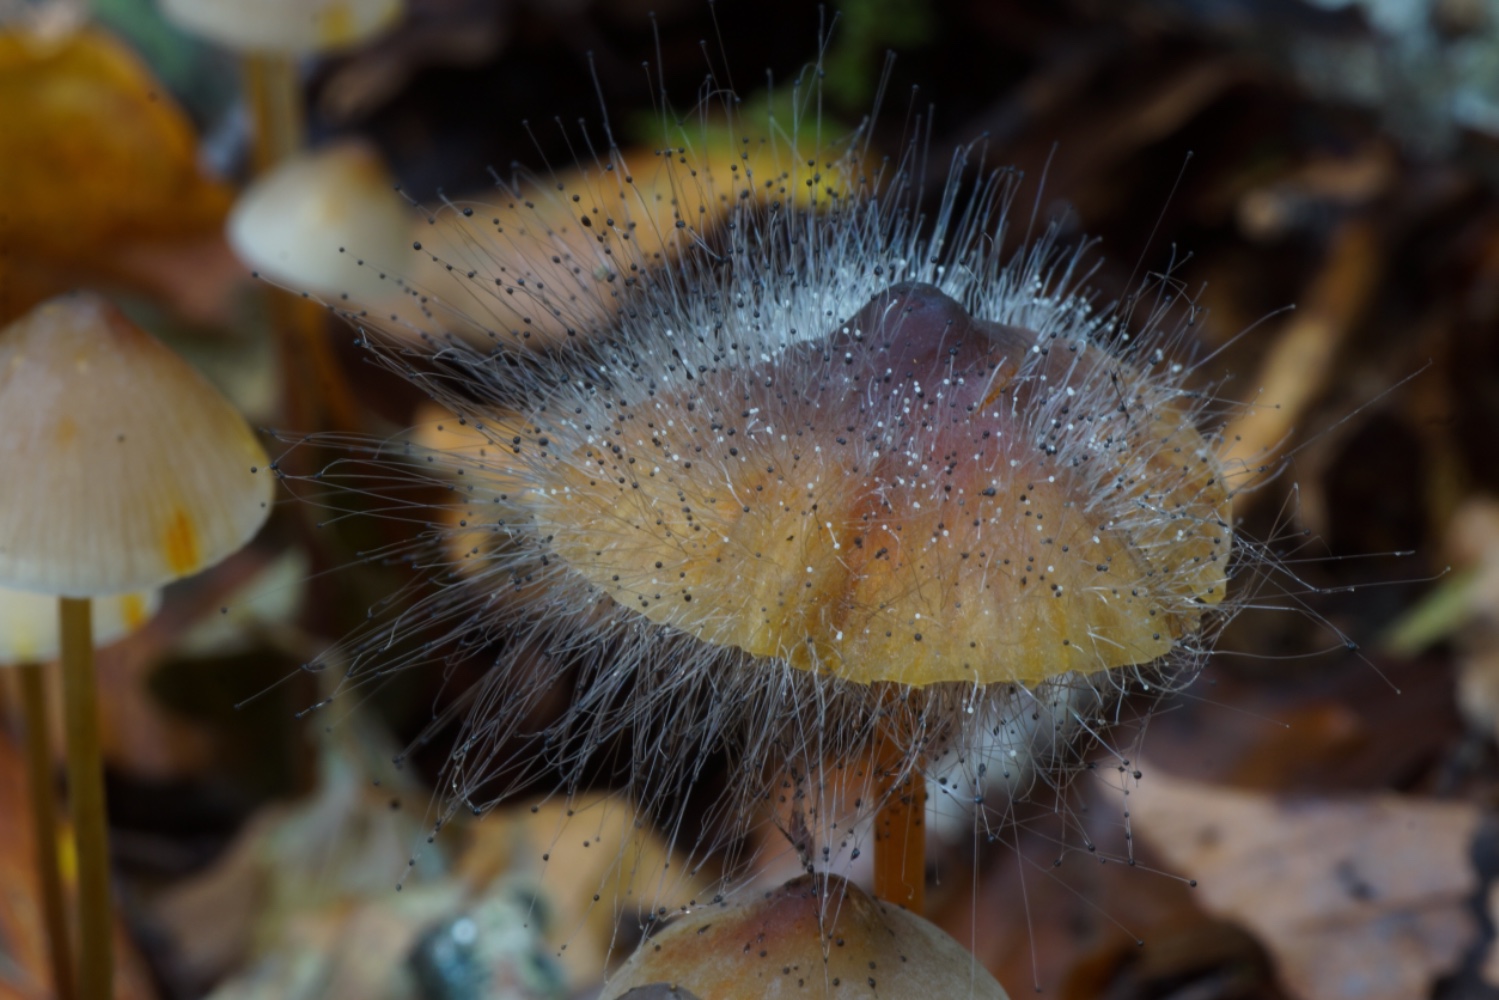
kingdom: Fungi
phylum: Mucoromycota
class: Mucoromycetes
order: Mucorales
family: Phycomycetaceae
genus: Spinellus
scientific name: Spinellus fusiger
